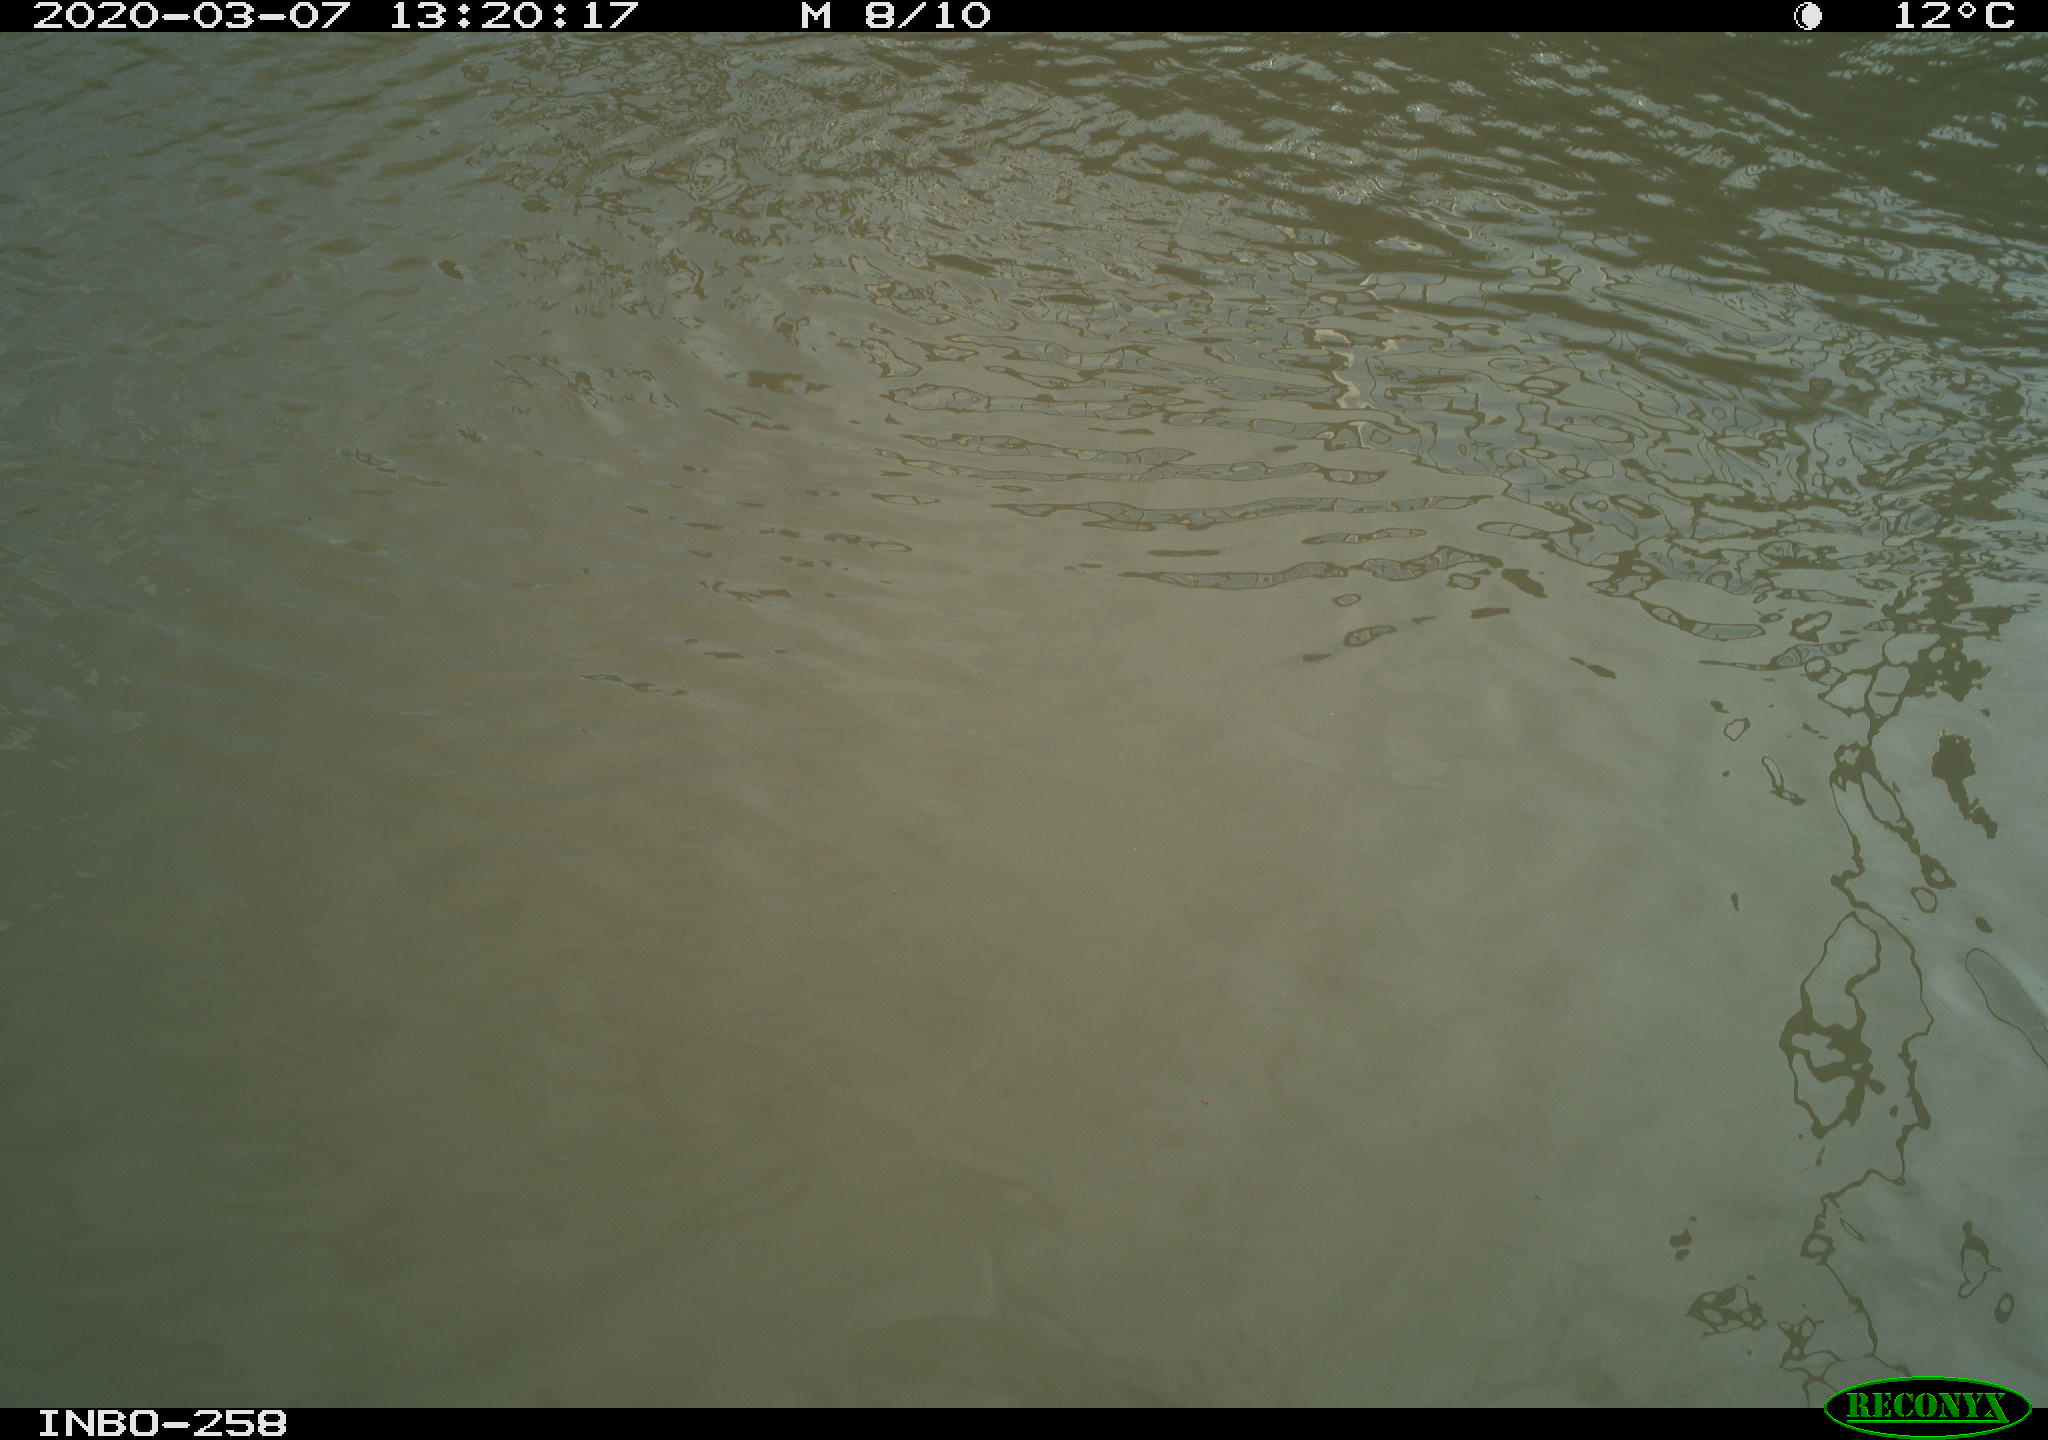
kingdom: Animalia
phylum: Chordata
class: Aves
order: Anseriformes
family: Anatidae
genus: Anas
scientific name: Anas platyrhynchos
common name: Mallard
